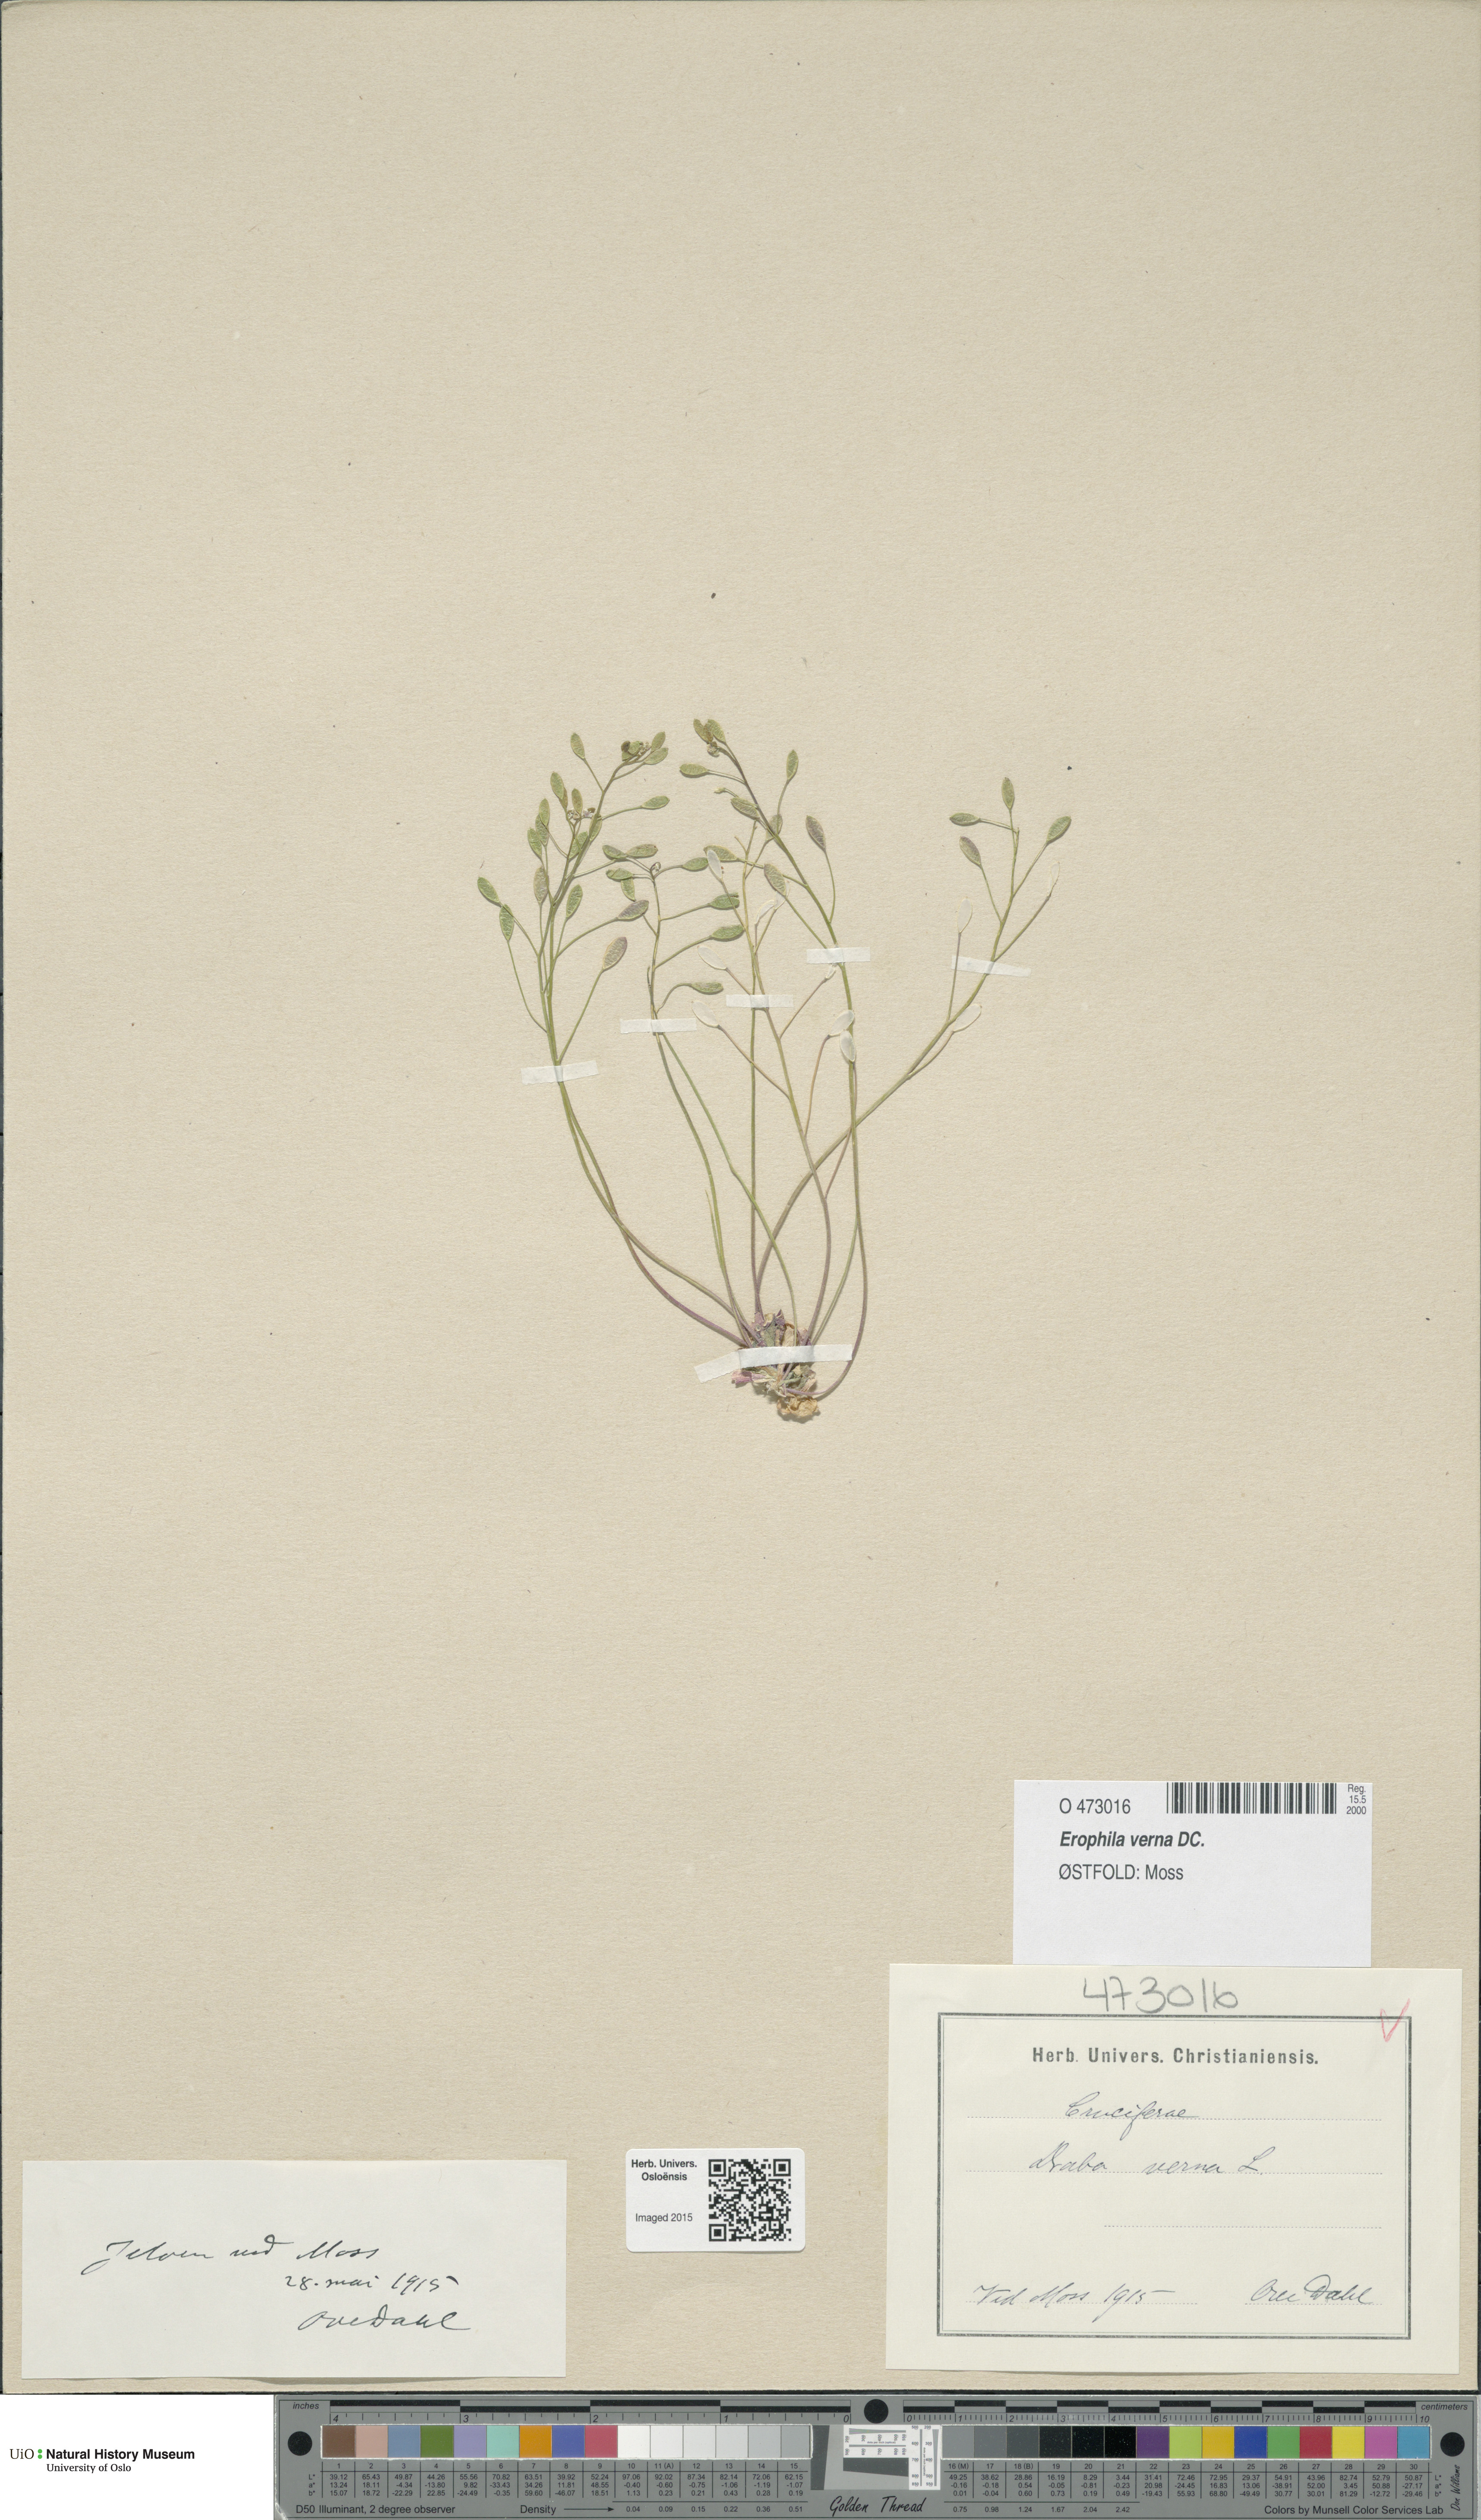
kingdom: Plantae
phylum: Tracheophyta
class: Magnoliopsida
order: Brassicales
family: Brassicaceae
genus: Draba
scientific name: Draba verna
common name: Spring draba
